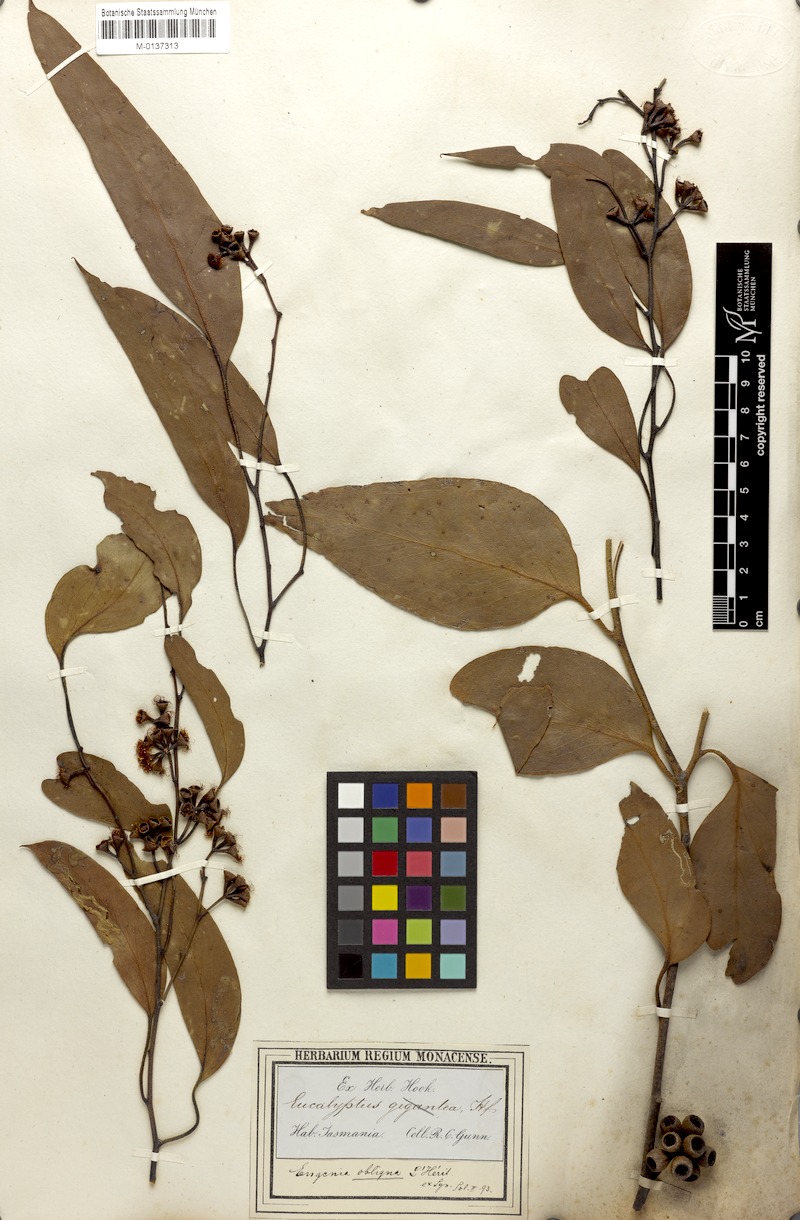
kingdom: Plantae
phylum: Tracheophyta
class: Magnoliopsida
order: Myrtales
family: Myrtaceae
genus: Eucalyptus
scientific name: Eucalyptus delegatensis
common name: Alpine-ash
